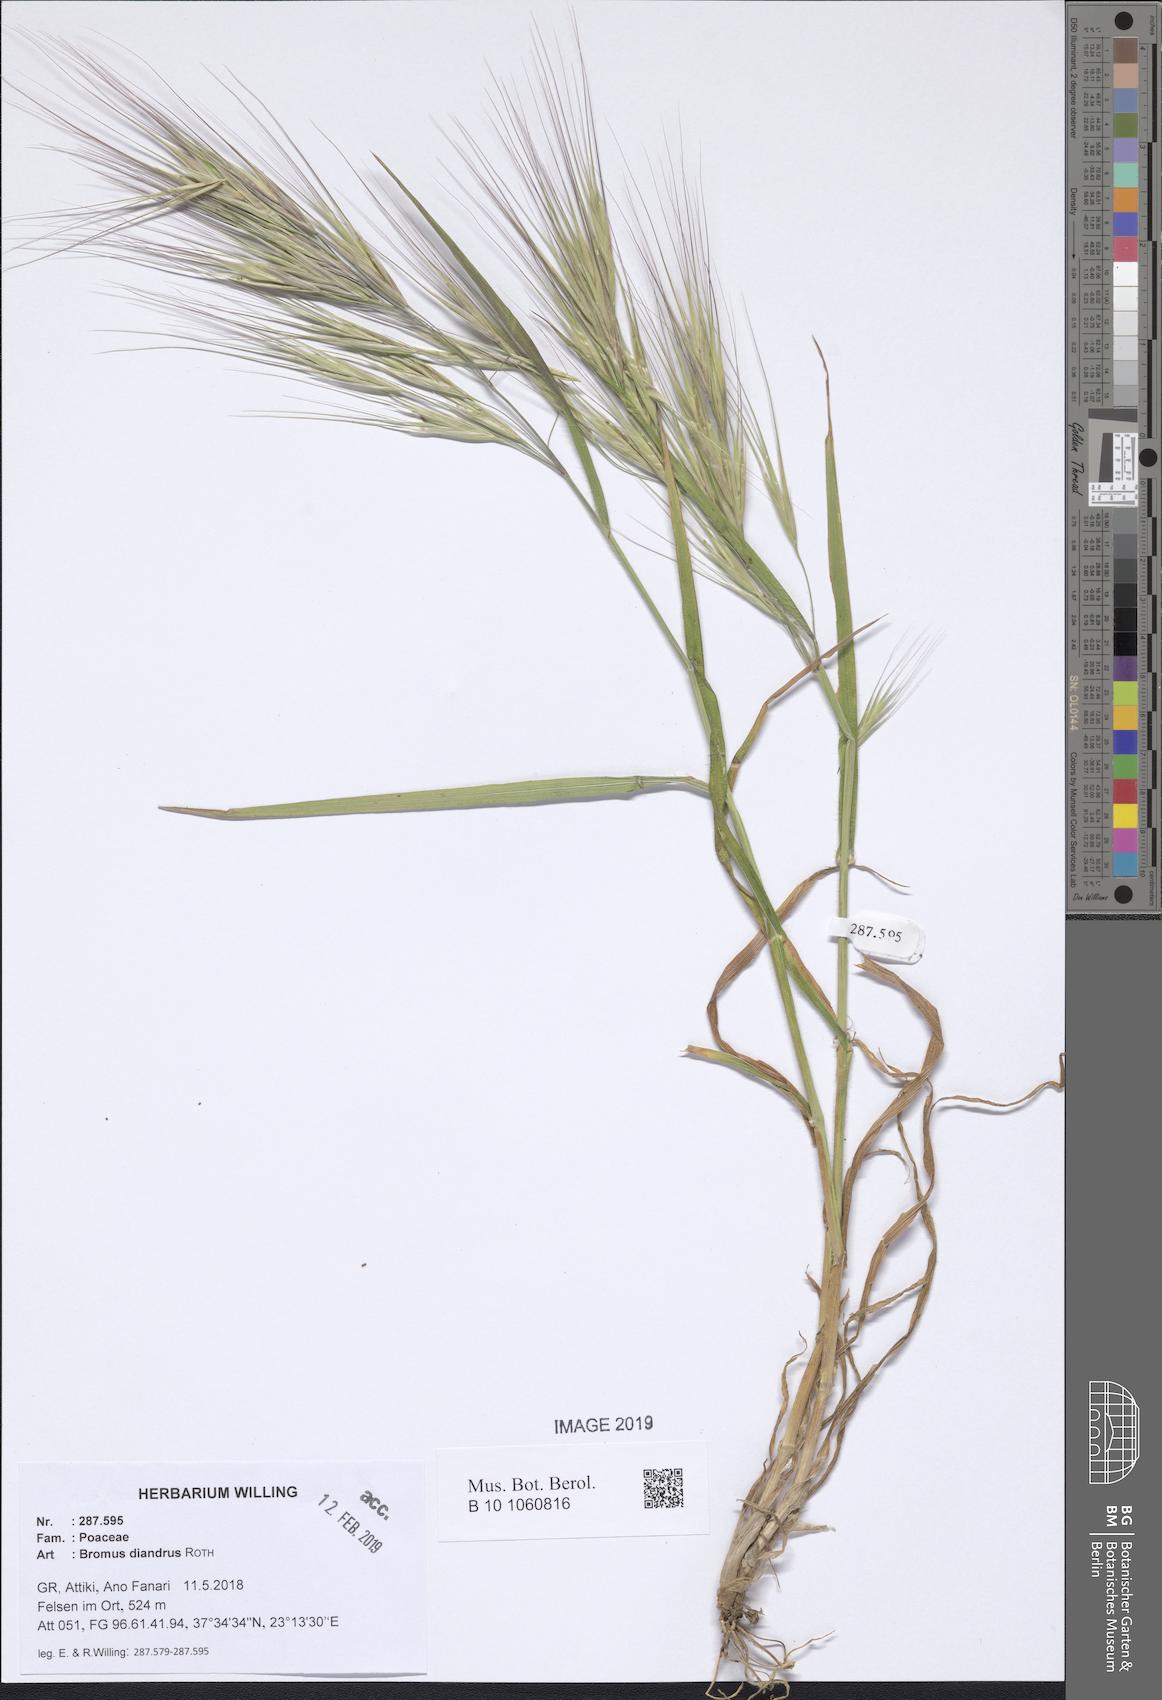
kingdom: Plantae
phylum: Tracheophyta
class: Liliopsida
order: Poales
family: Poaceae
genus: Bromus
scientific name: Bromus diandrus
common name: Ripgut brome
